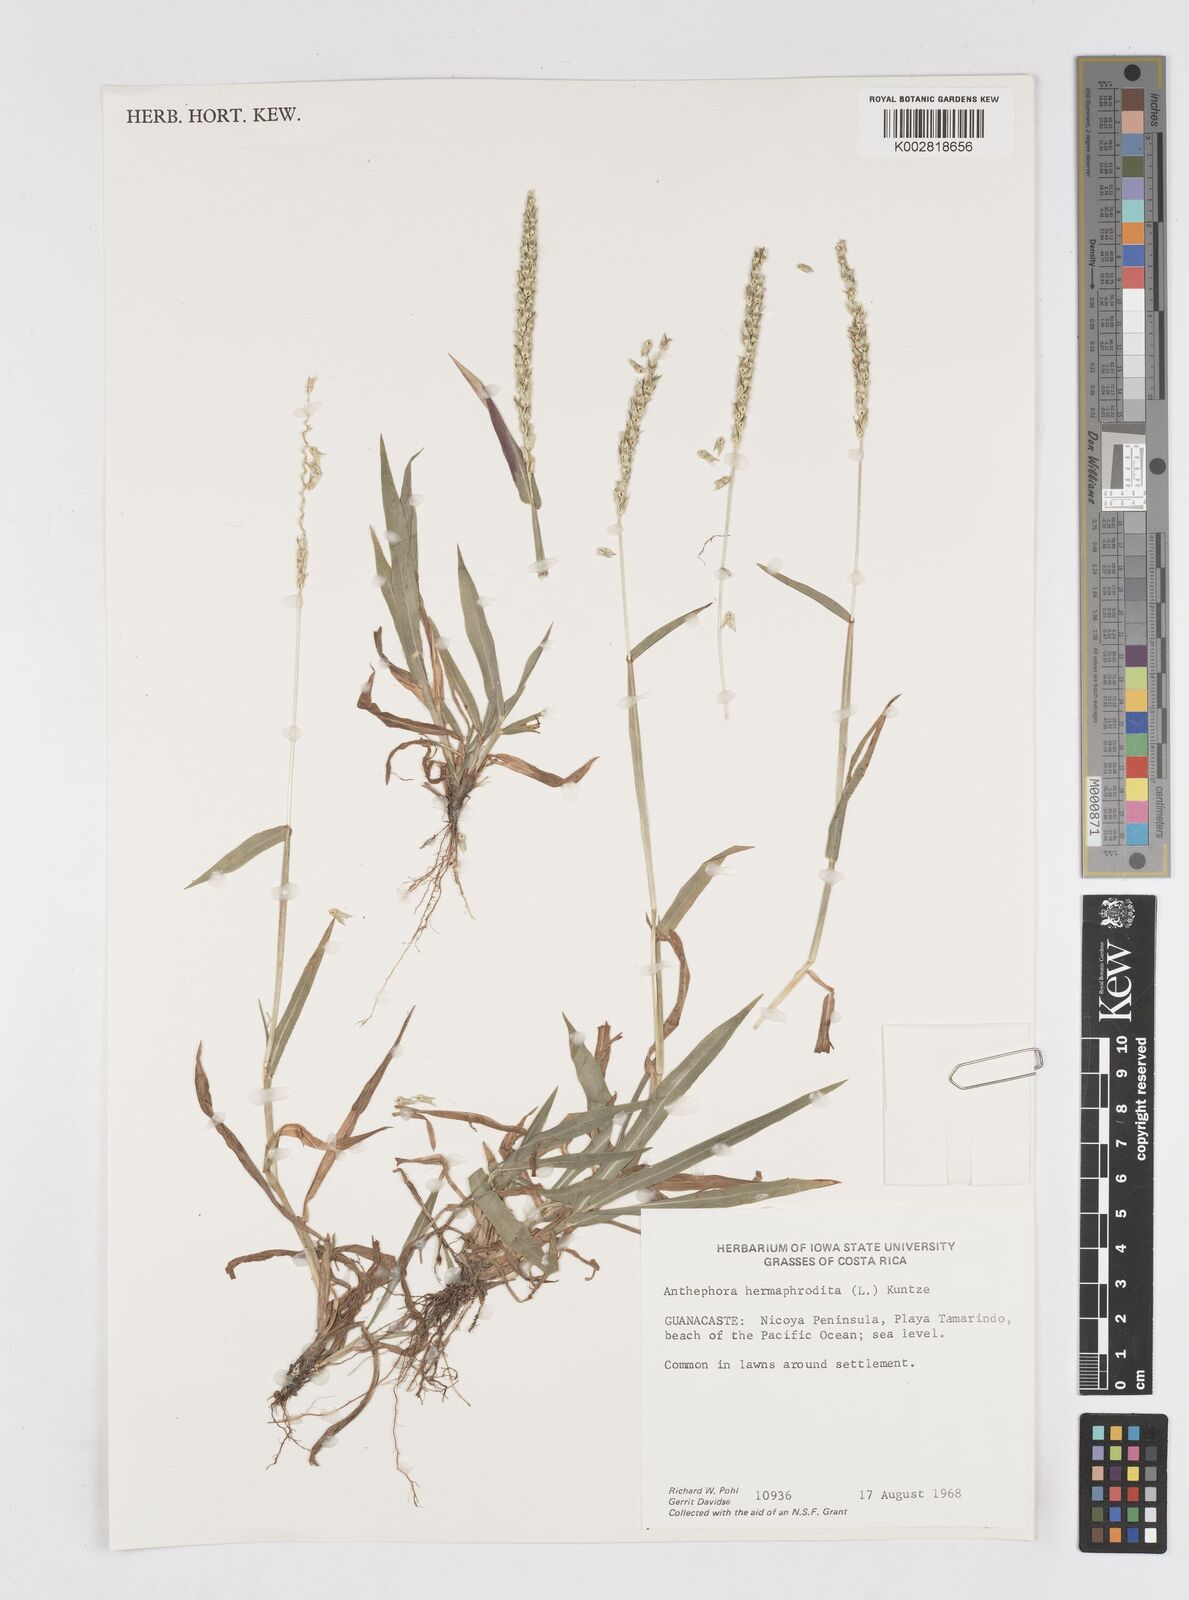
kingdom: Plantae
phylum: Tracheophyta
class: Liliopsida
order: Poales
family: Poaceae
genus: Anthephora
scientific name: Anthephora hermaphrodita
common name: Oldfield grass
